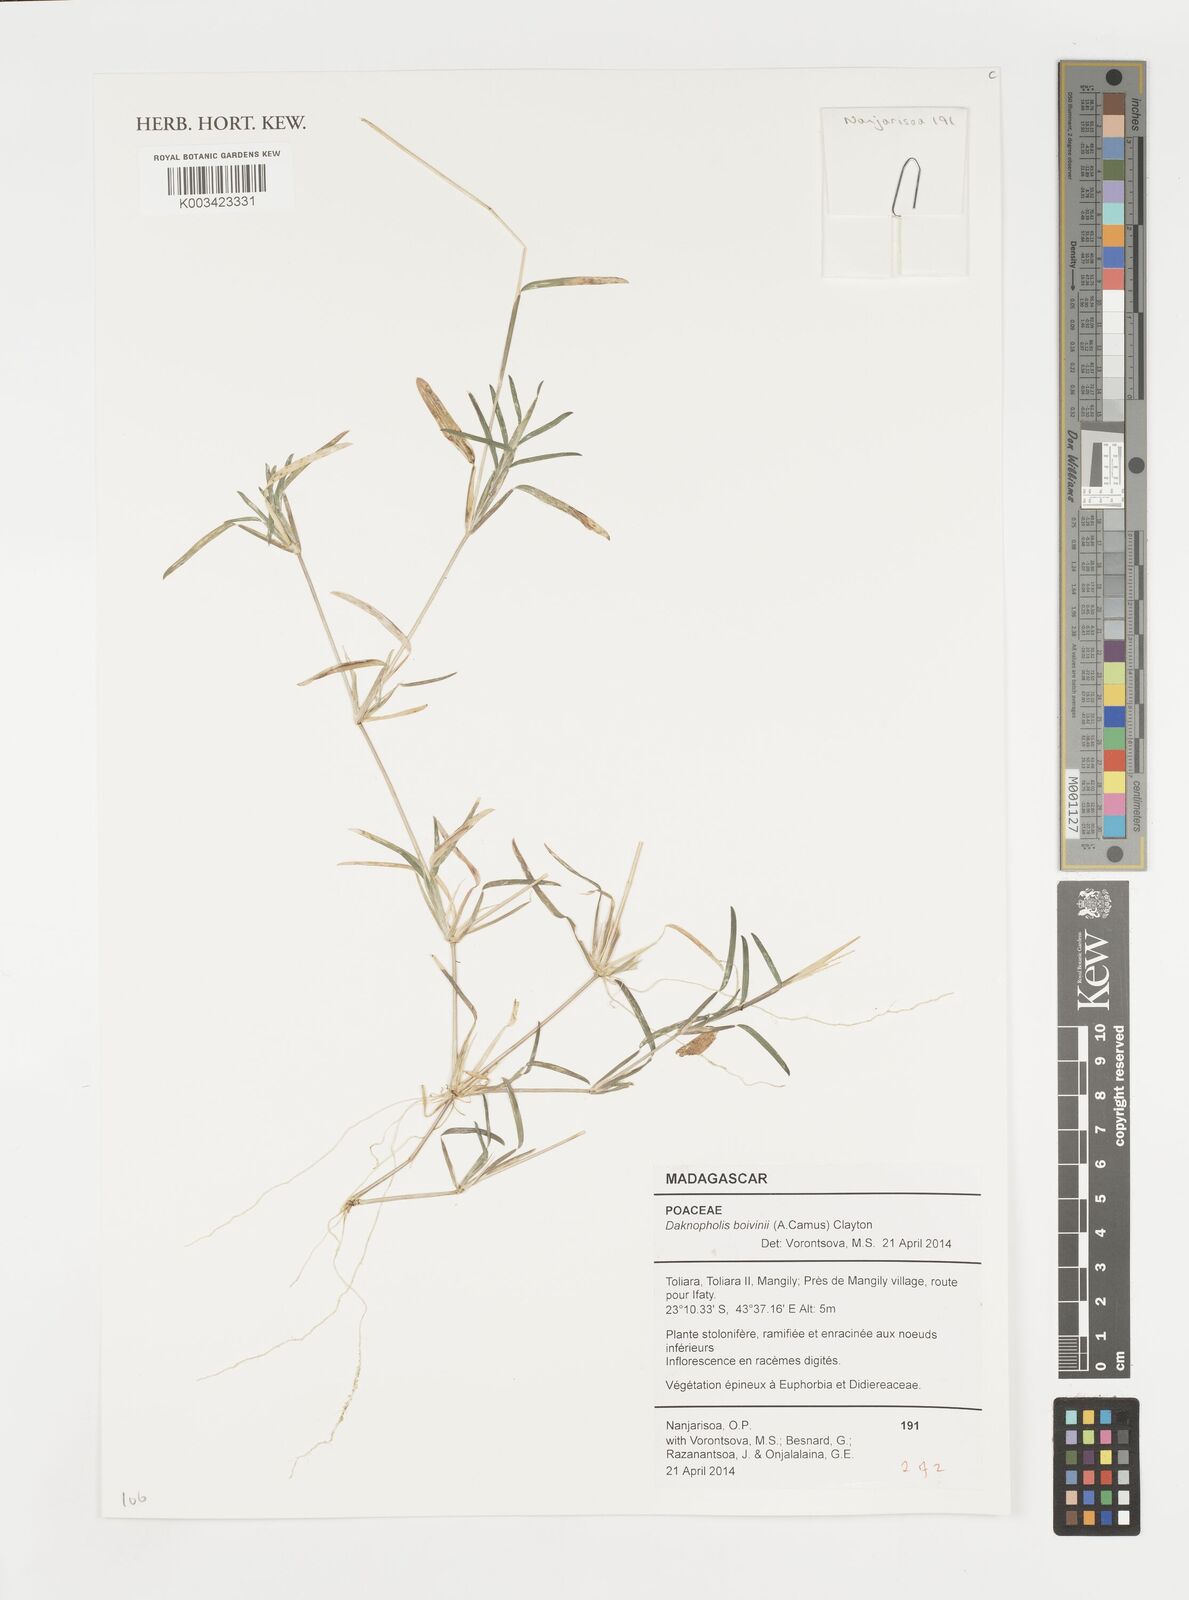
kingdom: Plantae
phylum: Tracheophyta
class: Liliopsida
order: Poales
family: Poaceae
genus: Daknopholis
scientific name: Daknopholis boivinii
